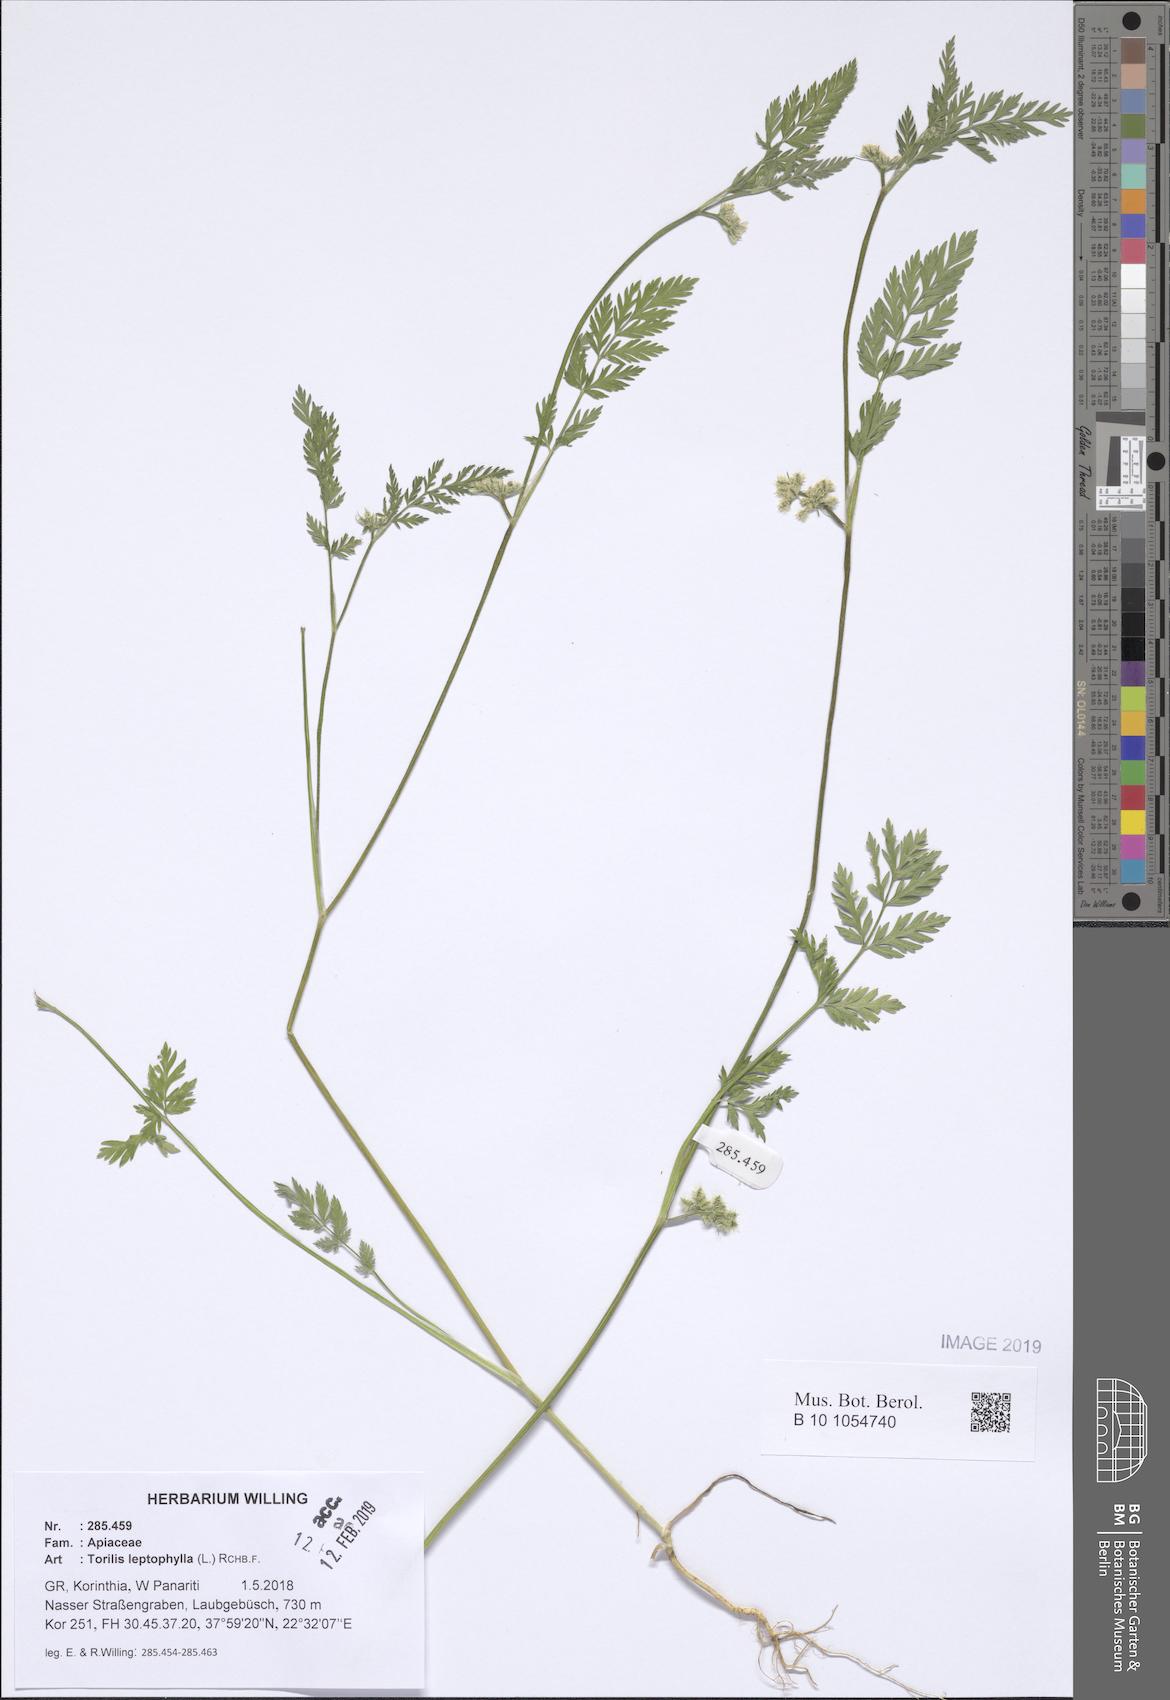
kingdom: Plantae
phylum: Tracheophyta
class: Magnoliopsida
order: Apiales
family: Apiaceae
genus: Torilis
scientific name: Torilis leptophylla
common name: Bristlefruit hedgeparsley
